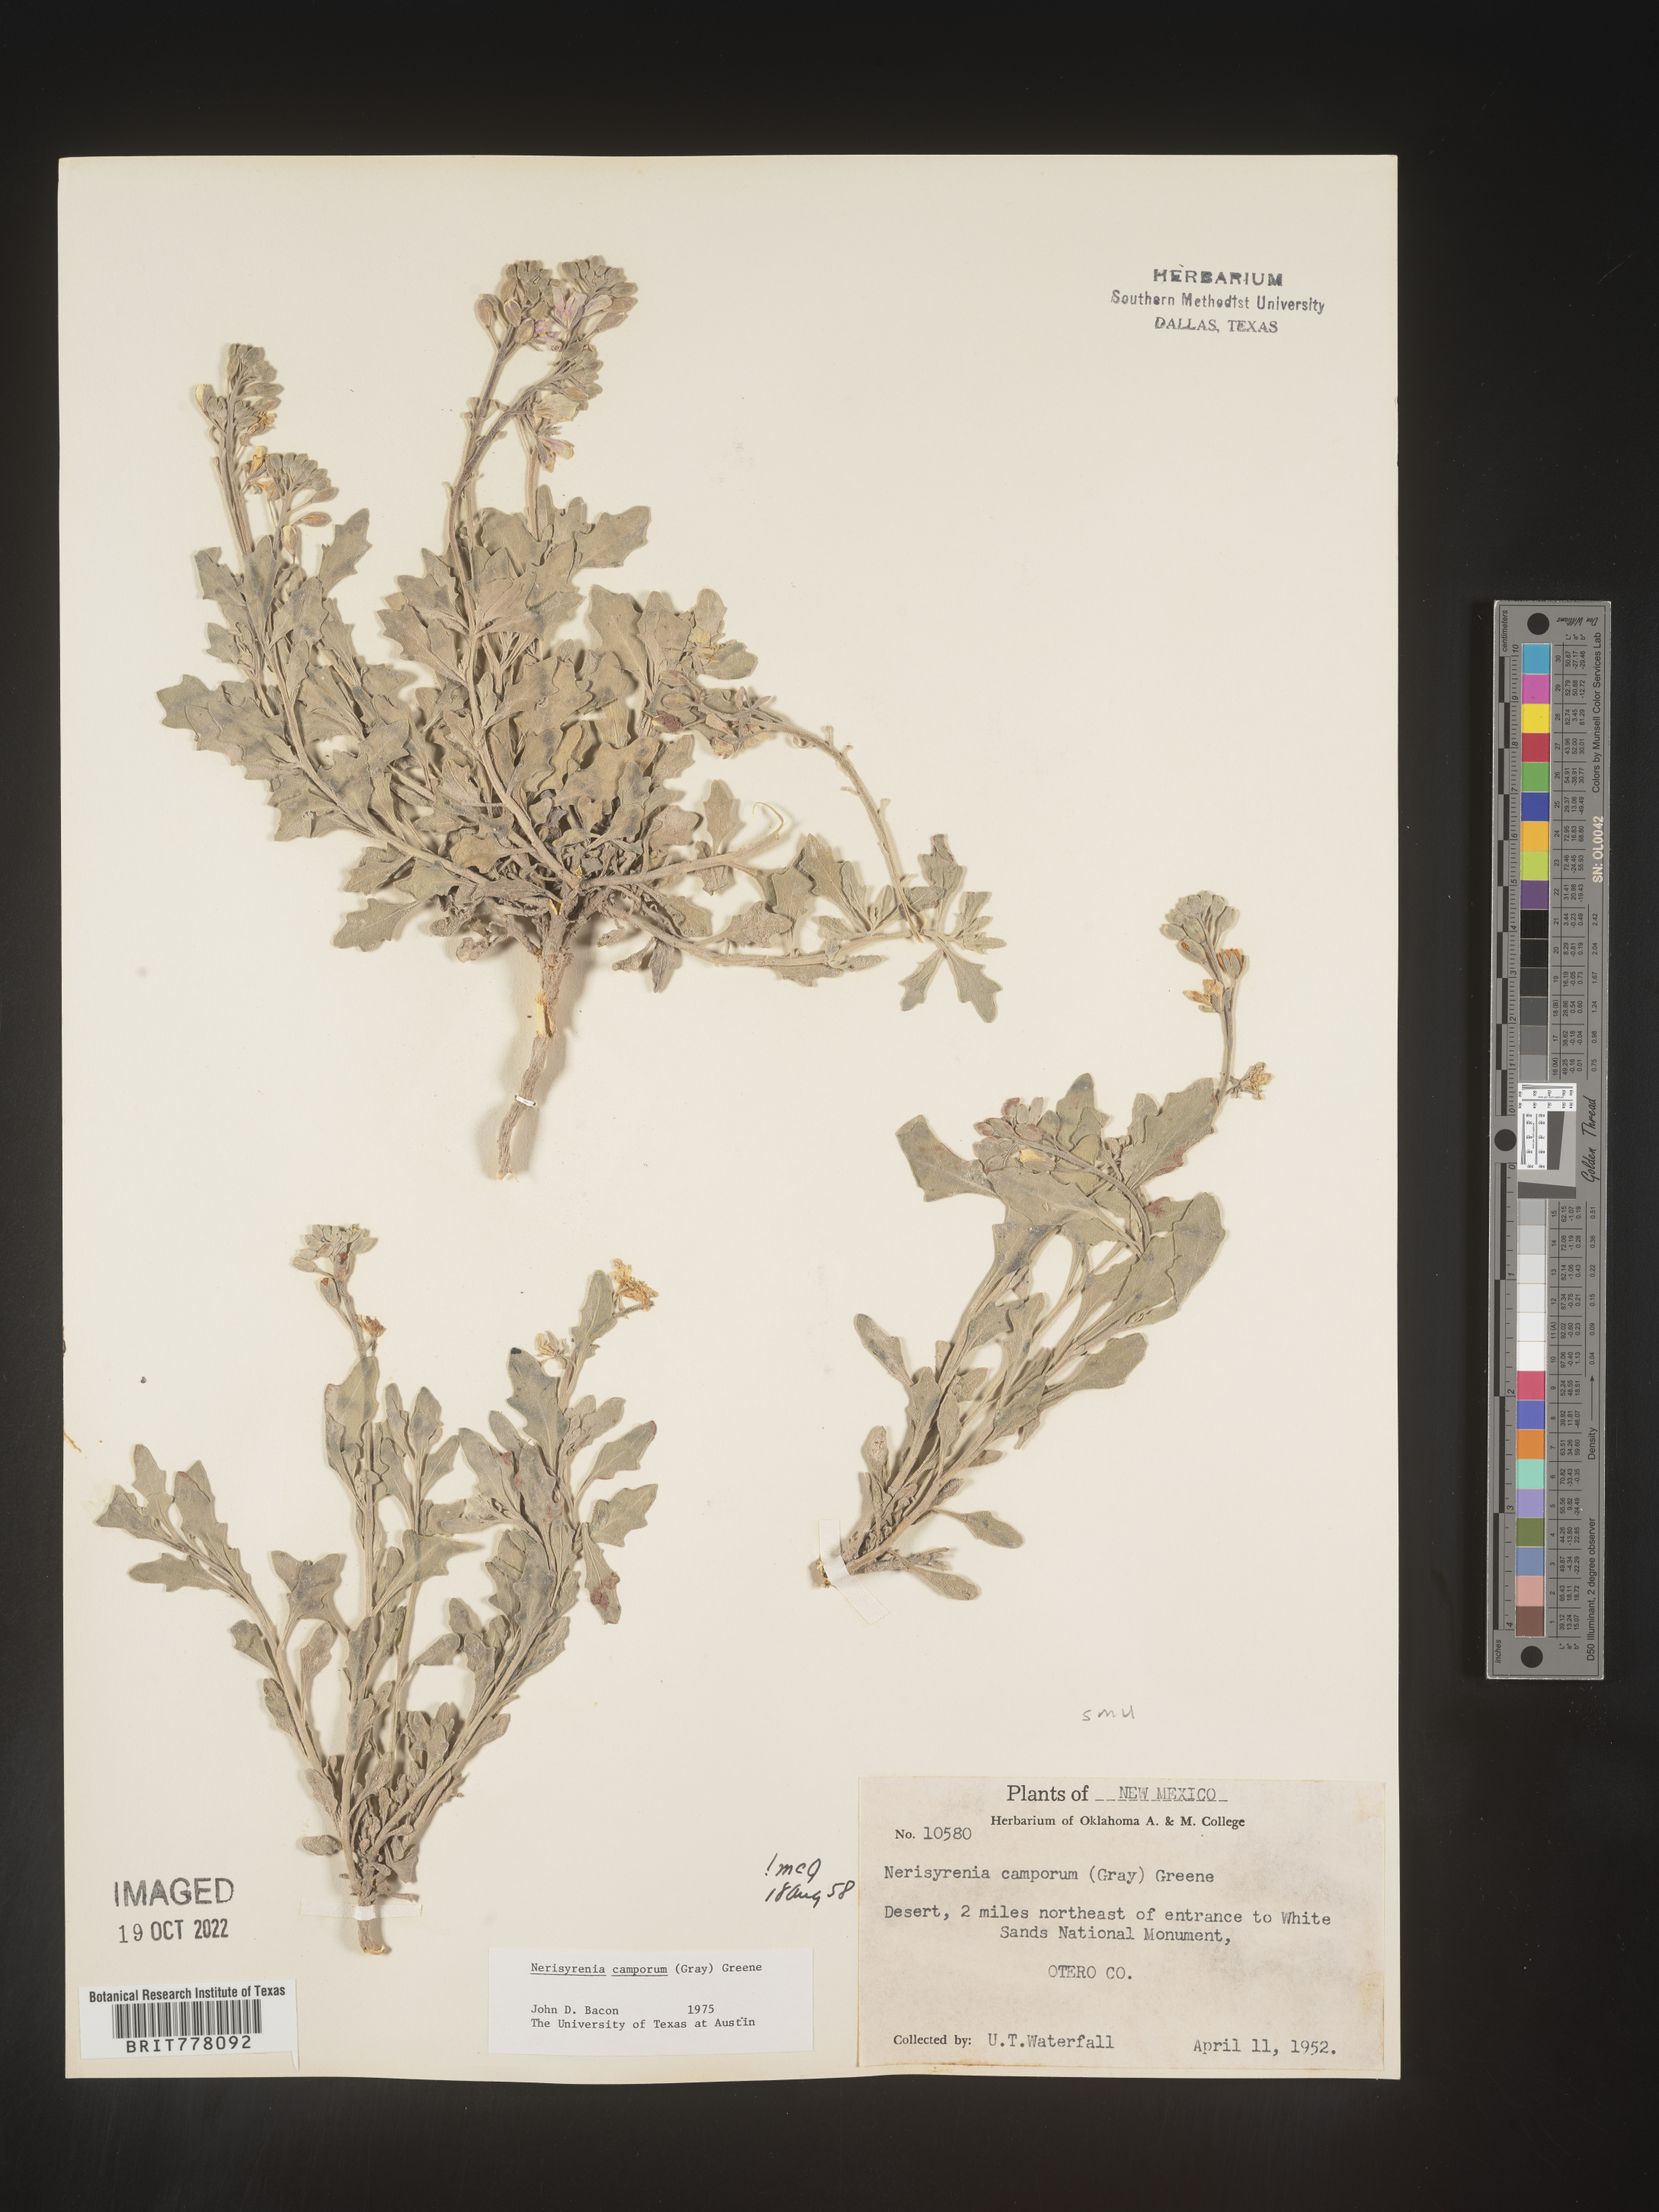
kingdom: Plantae
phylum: Tracheophyta
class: Magnoliopsida
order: Brassicales
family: Brassicaceae
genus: Nerisyrenia
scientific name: Nerisyrenia
